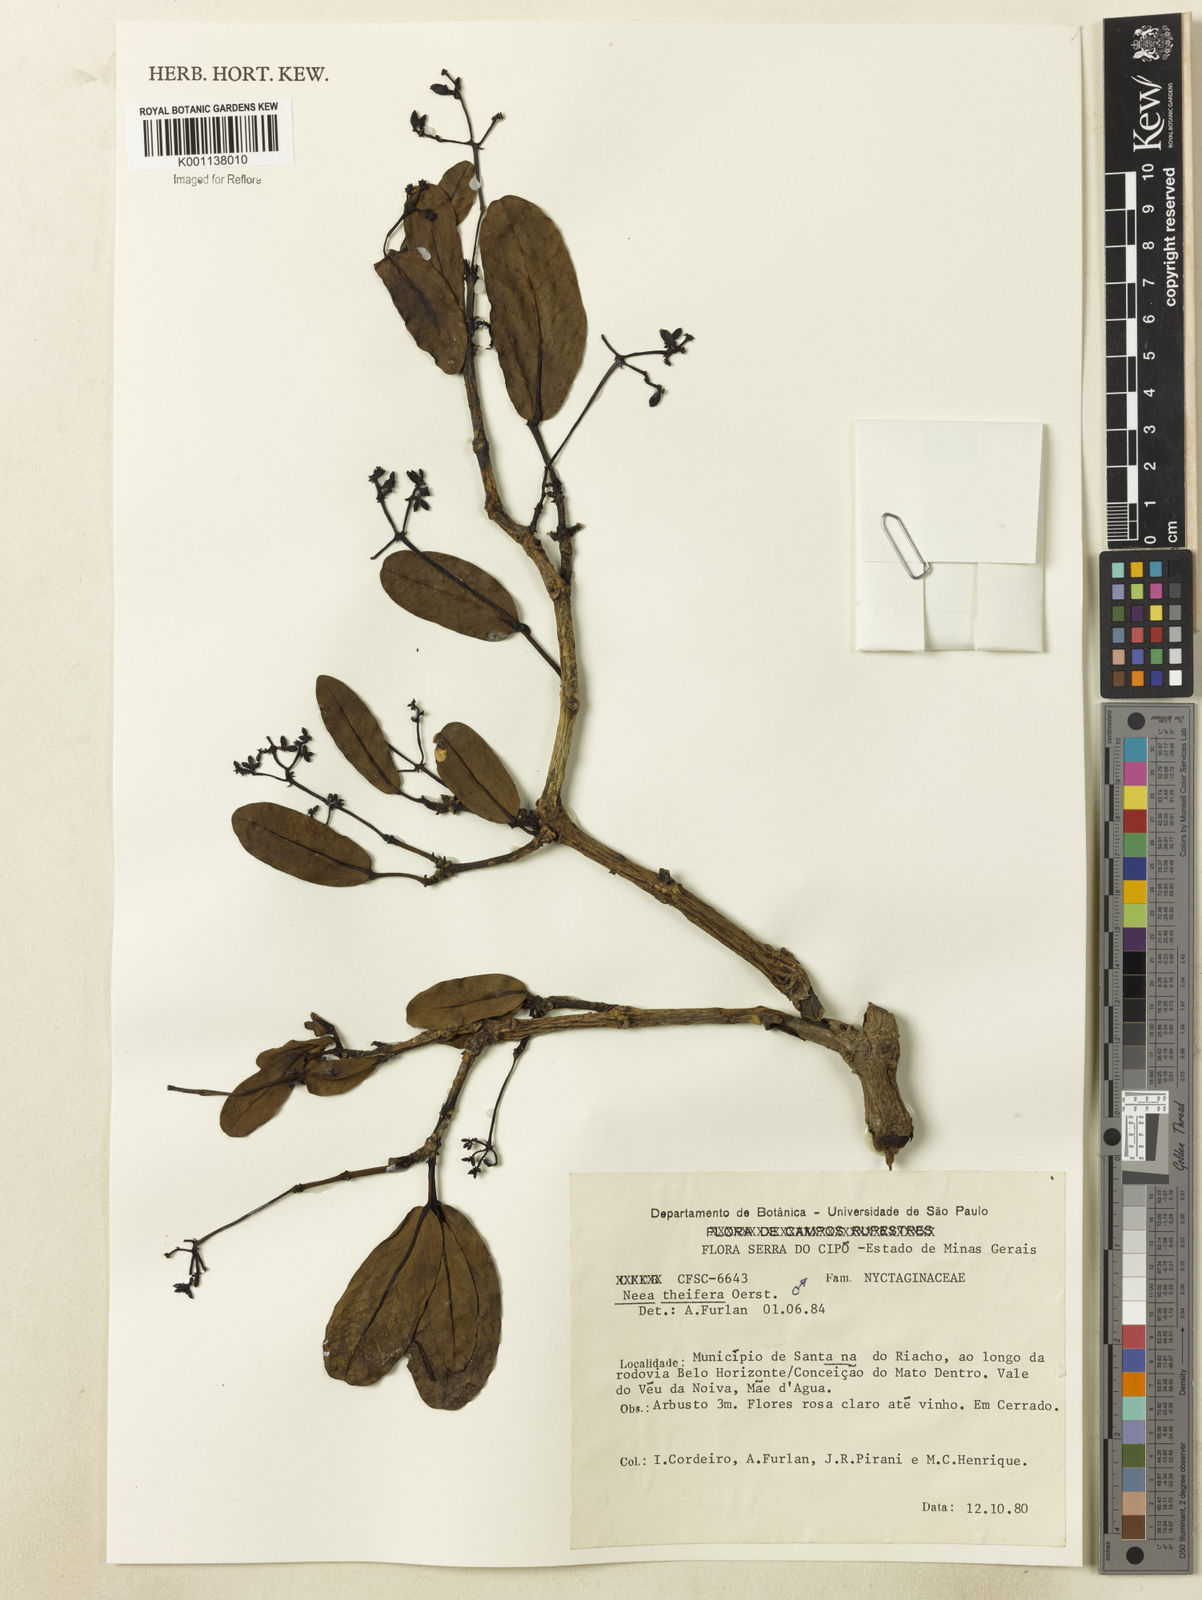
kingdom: Plantae
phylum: Tracheophyta
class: Magnoliopsida
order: Caryophyllales
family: Nyctaginaceae
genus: Neea
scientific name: Neea theifera
